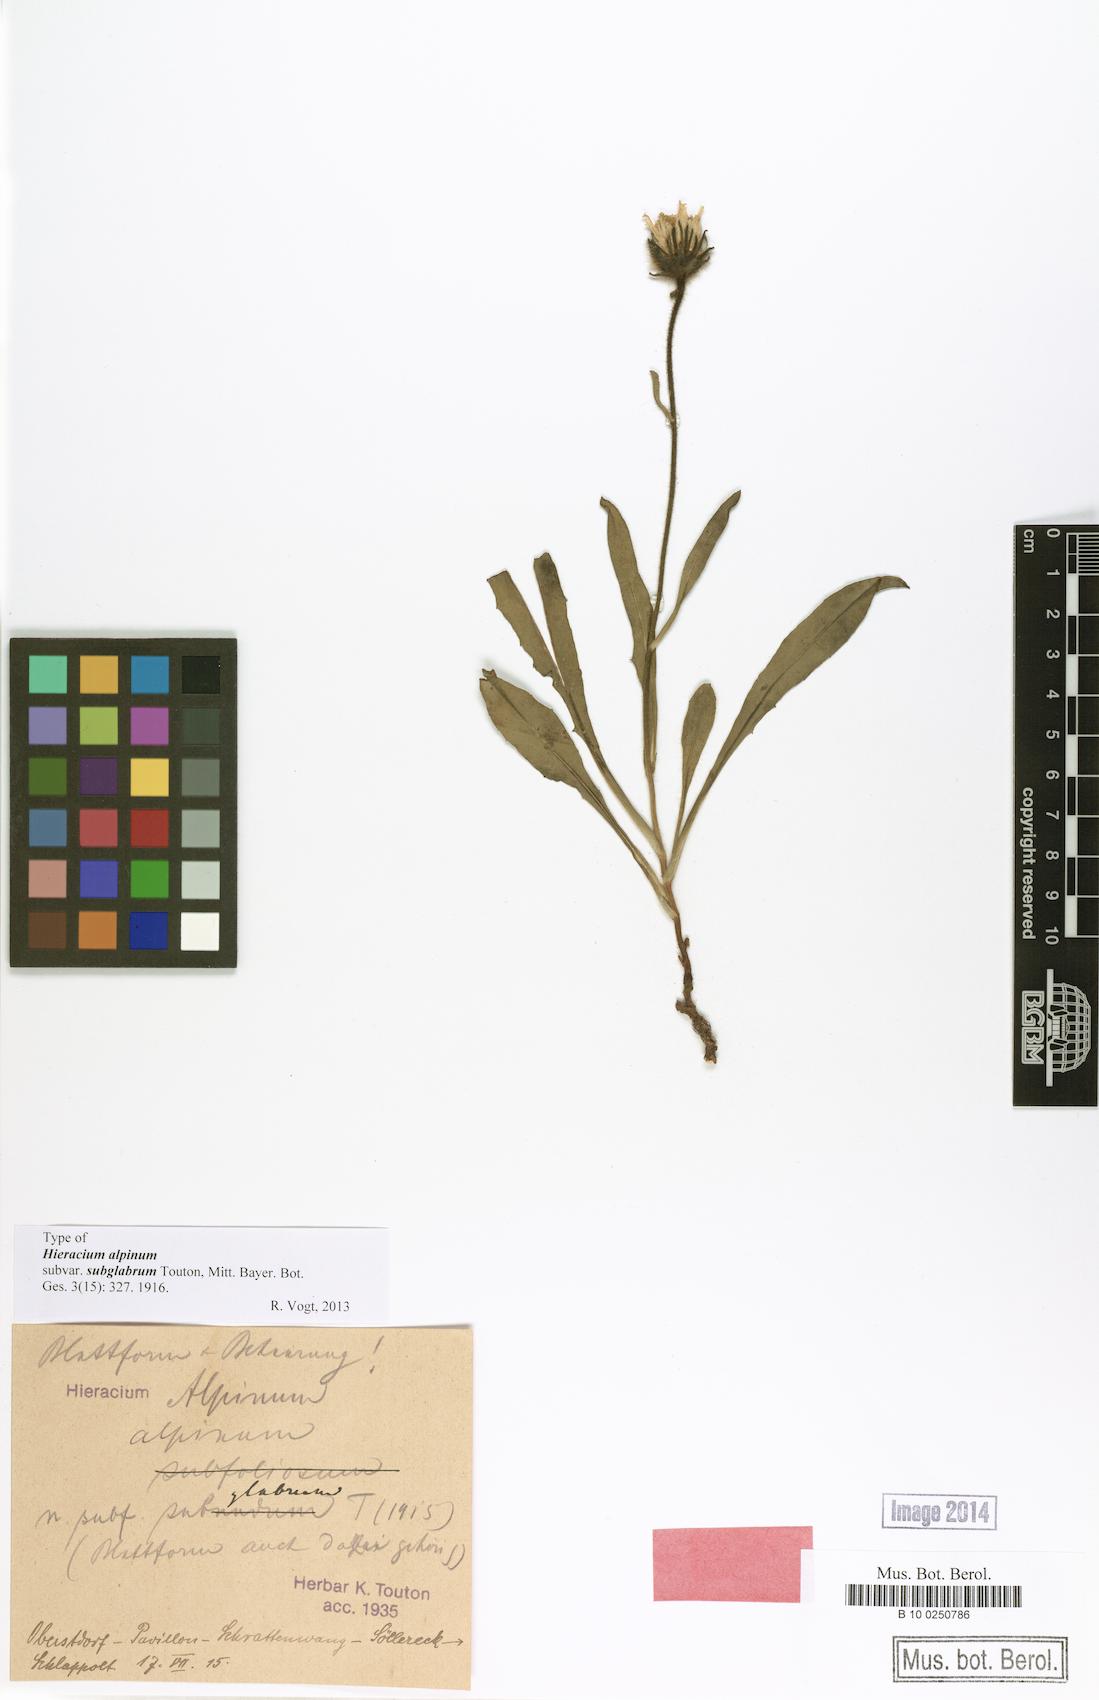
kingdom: Plantae
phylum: Tracheophyta
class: Magnoliopsida
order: Asterales
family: Asteraceae
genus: Hieracium
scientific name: Hieracium alpinum
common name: Alpine hawkweed
